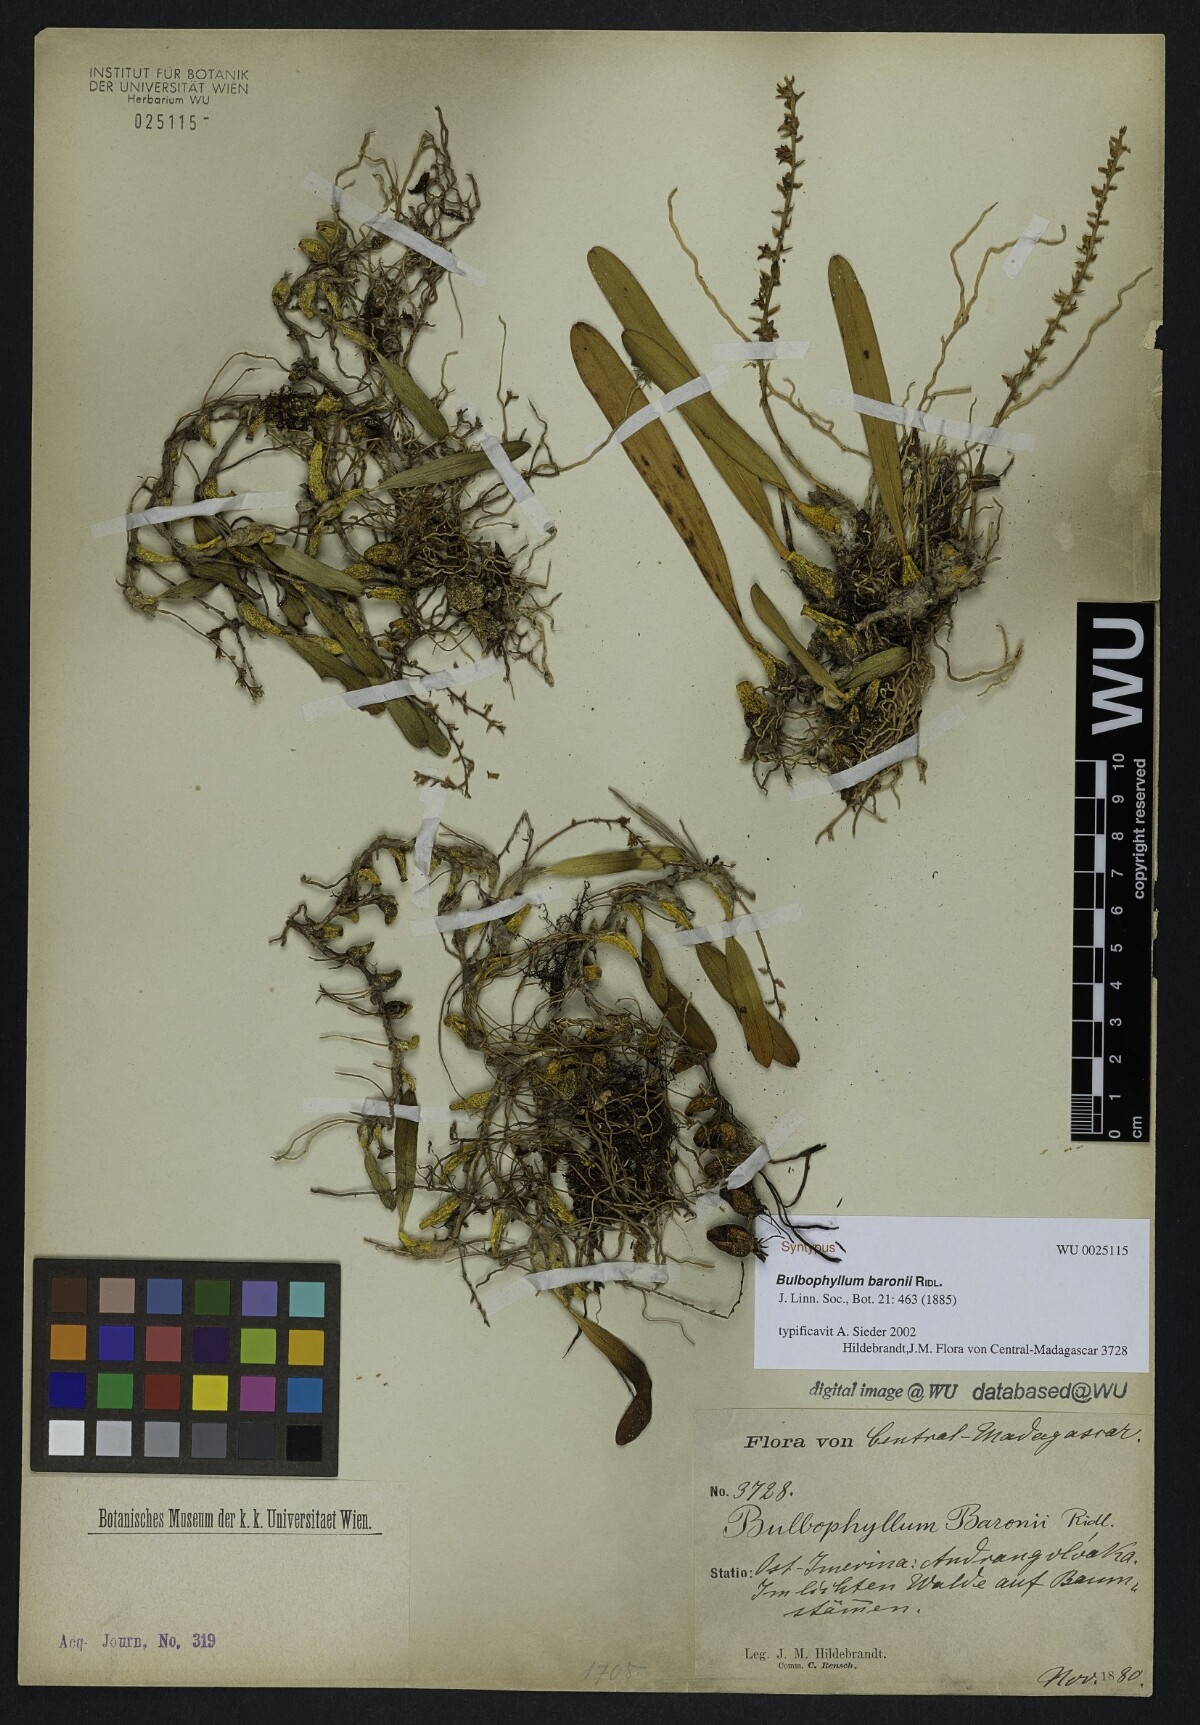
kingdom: Plantae
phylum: Tracheophyta
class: Liliopsida
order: Asparagales
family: Orchidaceae
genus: Bulbophyllum
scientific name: Bulbophyllum baronii
